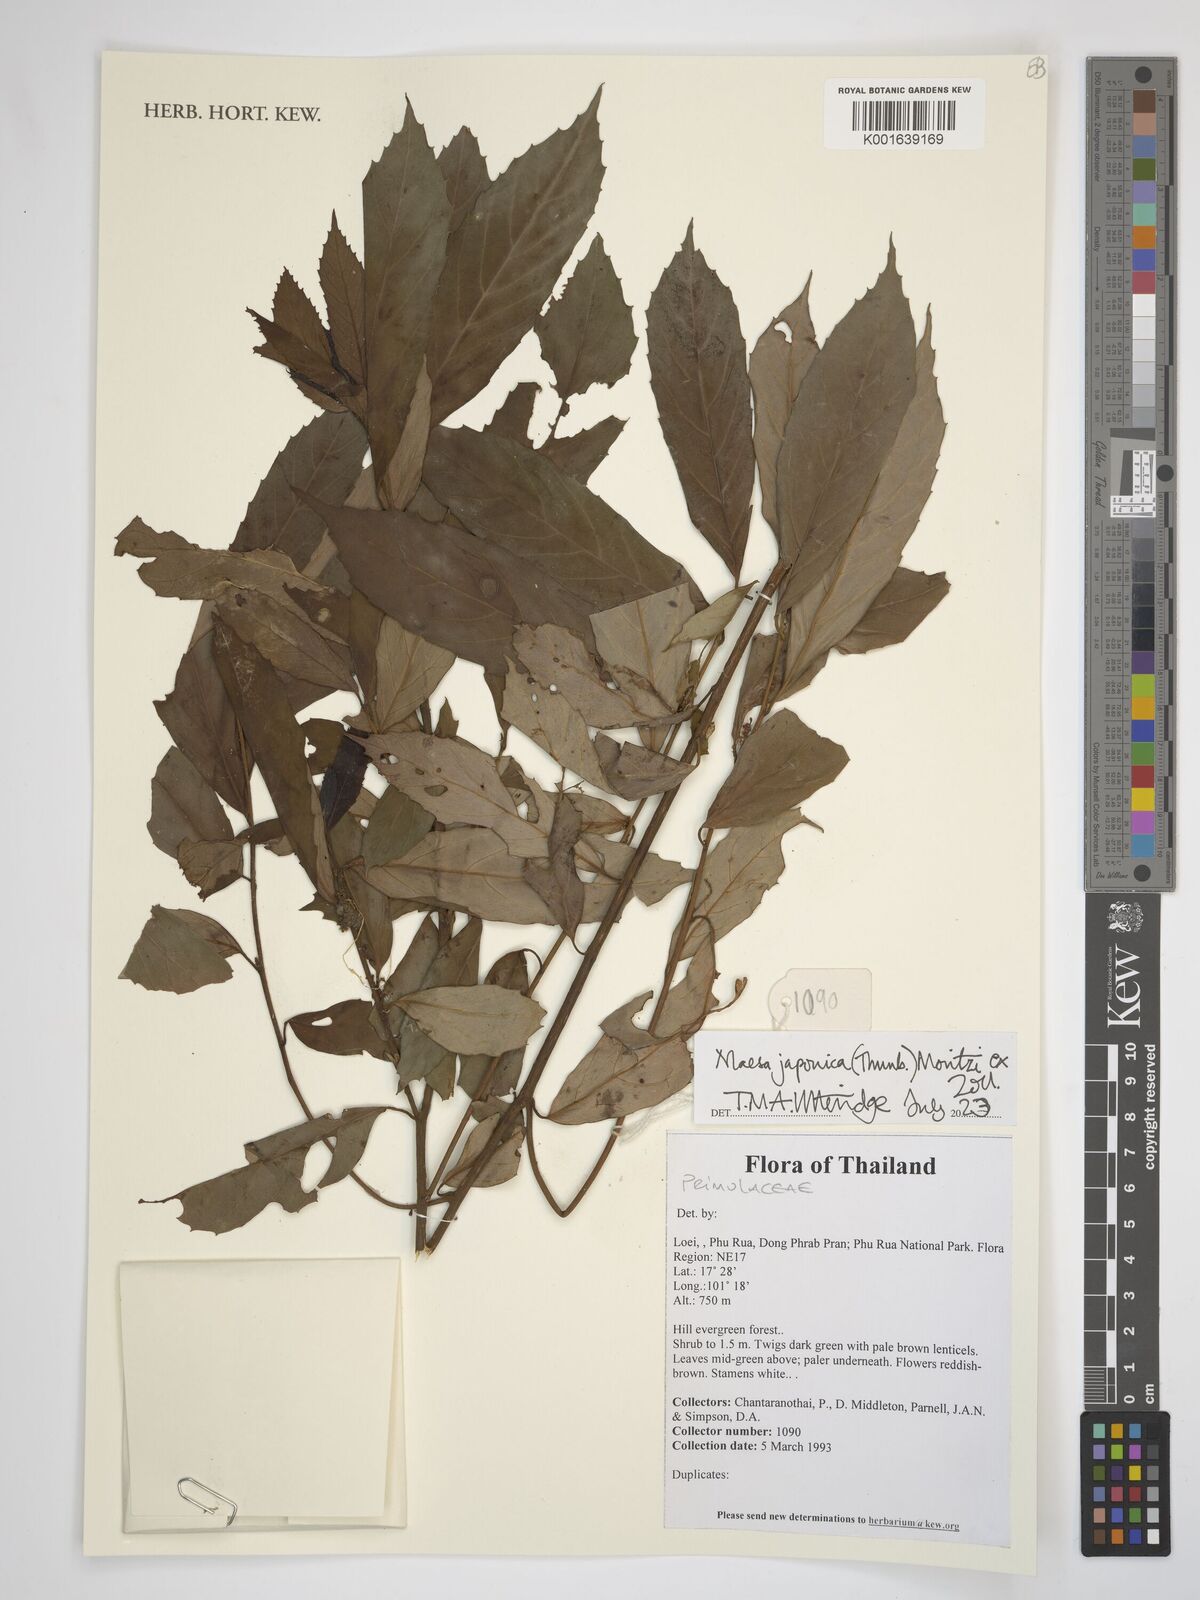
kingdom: Plantae
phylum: Tracheophyta
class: Magnoliopsida
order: Ericales
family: Primulaceae
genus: Maesa
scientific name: Maesa japonica
